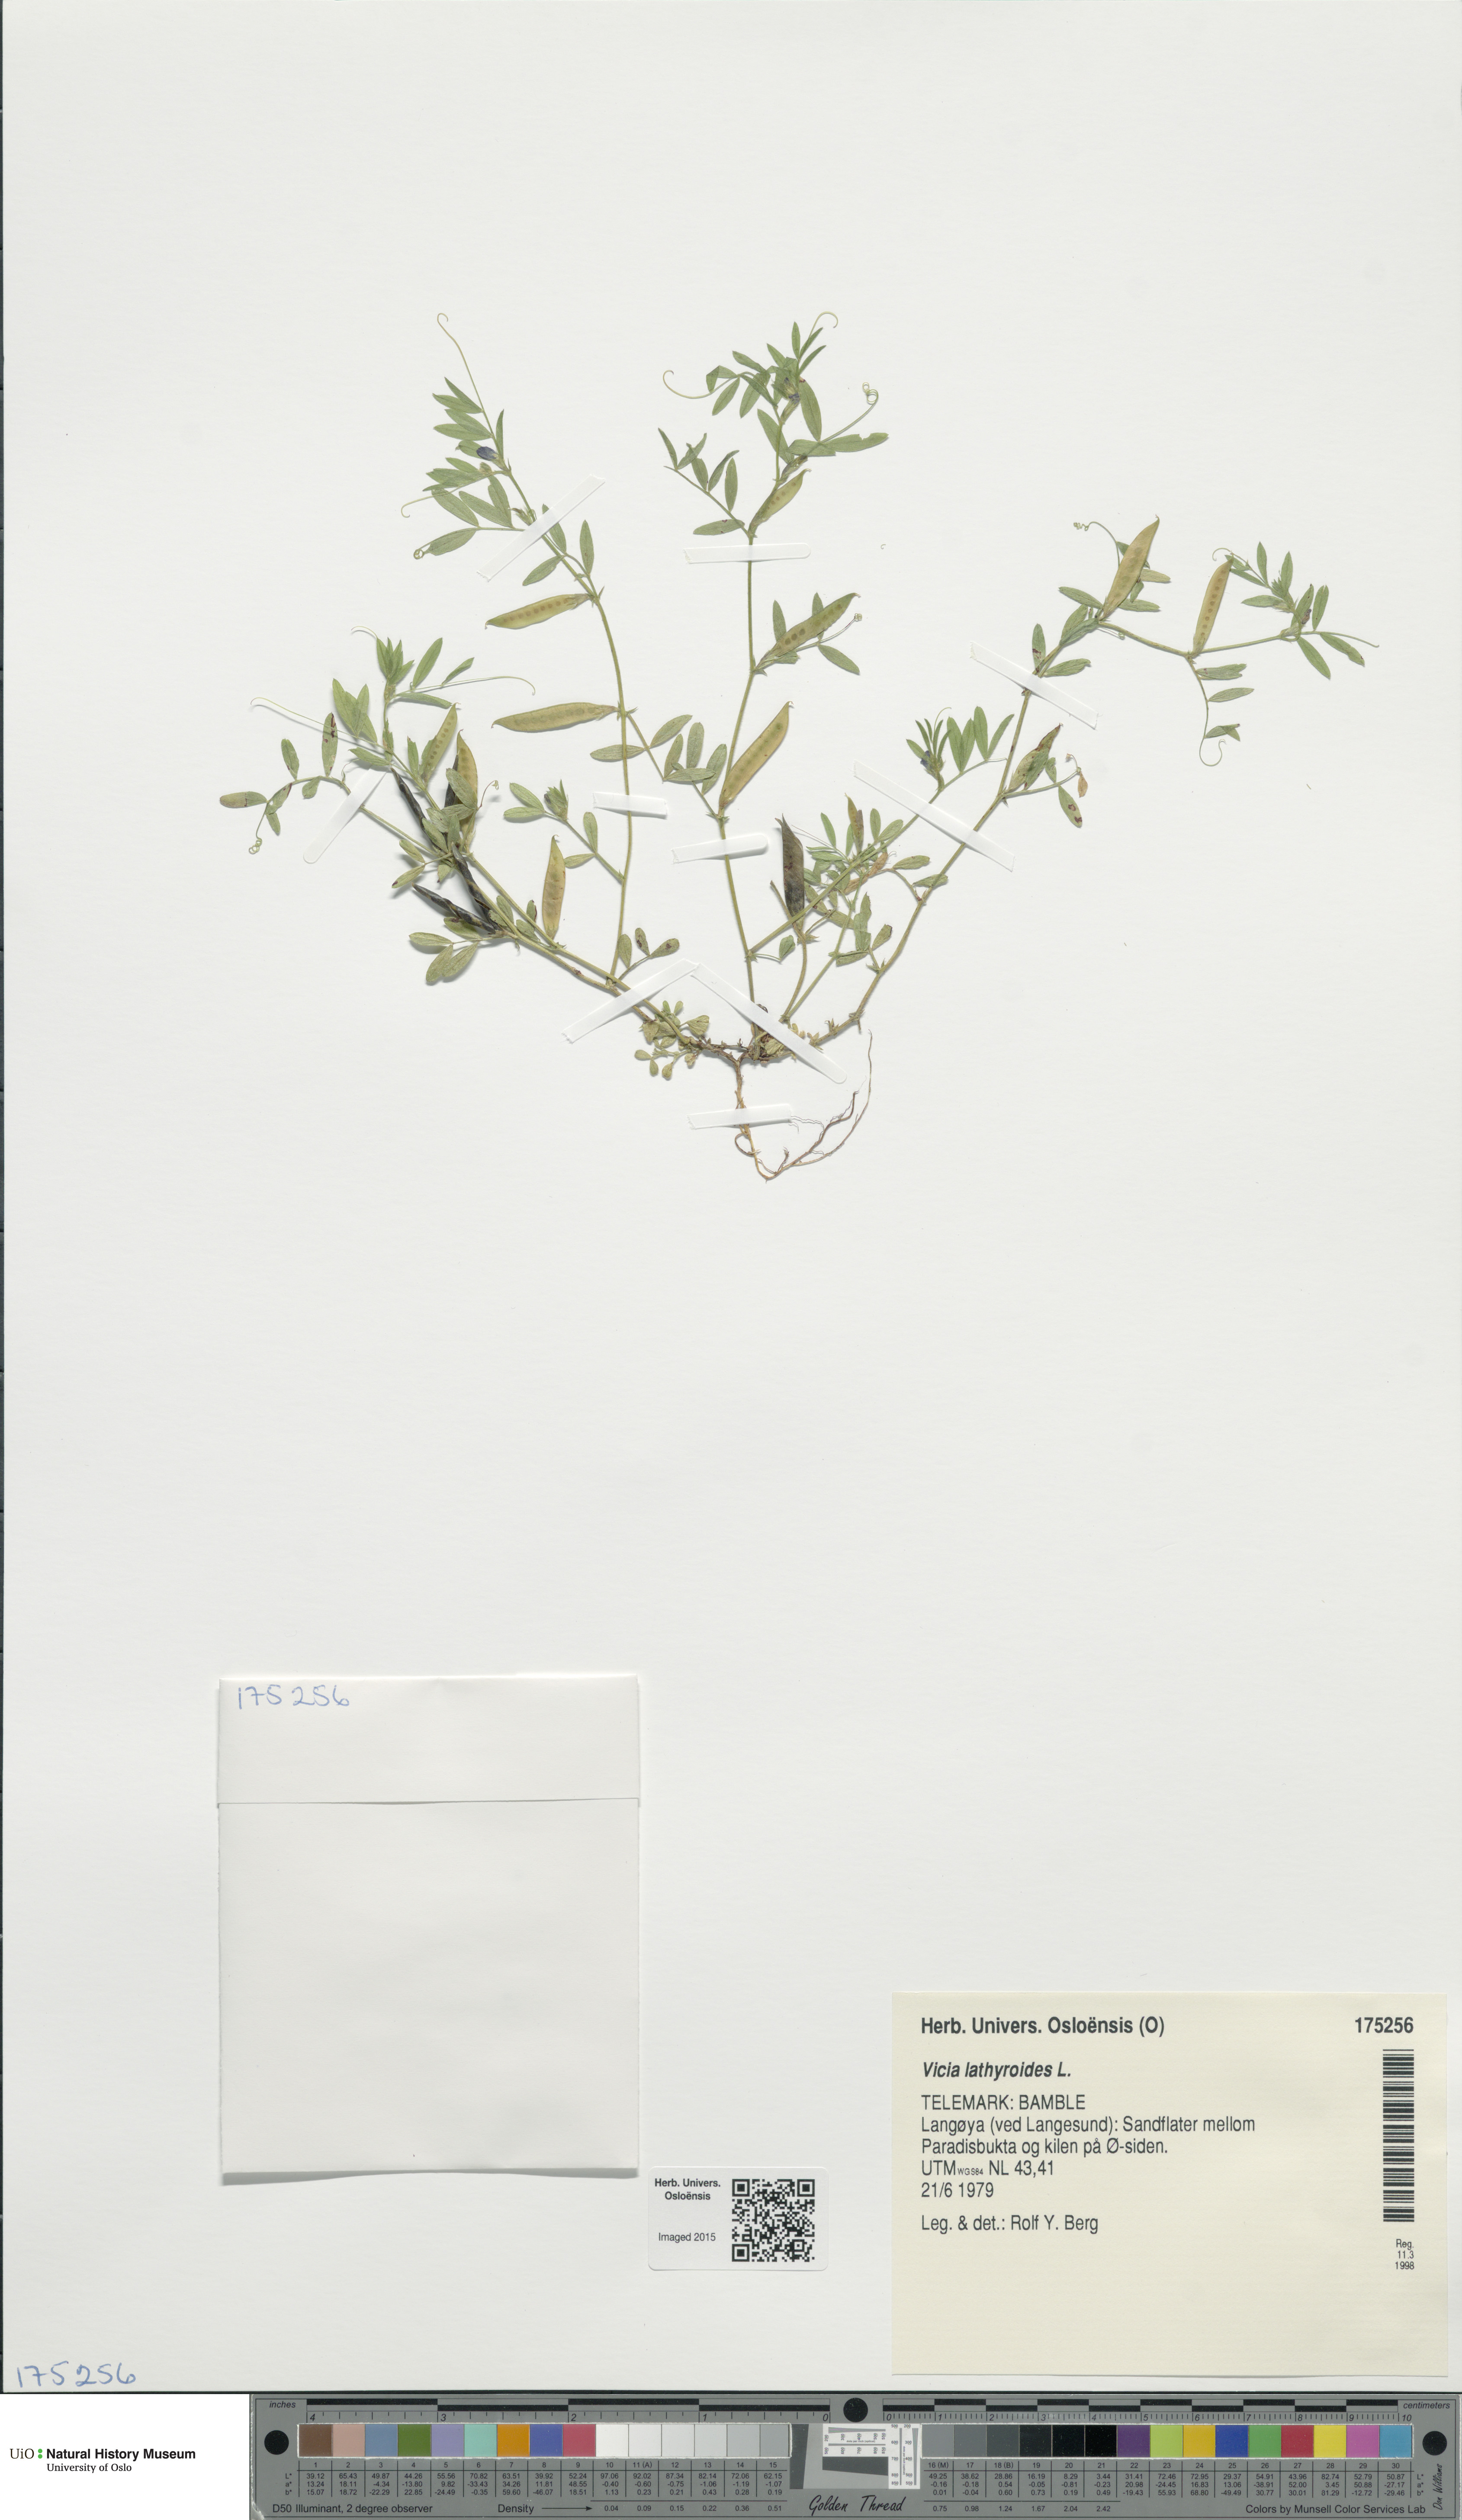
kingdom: Plantae
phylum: Tracheophyta
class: Magnoliopsida
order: Fabales
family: Fabaceae
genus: Vicia
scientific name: Vicia lathyroides
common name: Spring vetch
